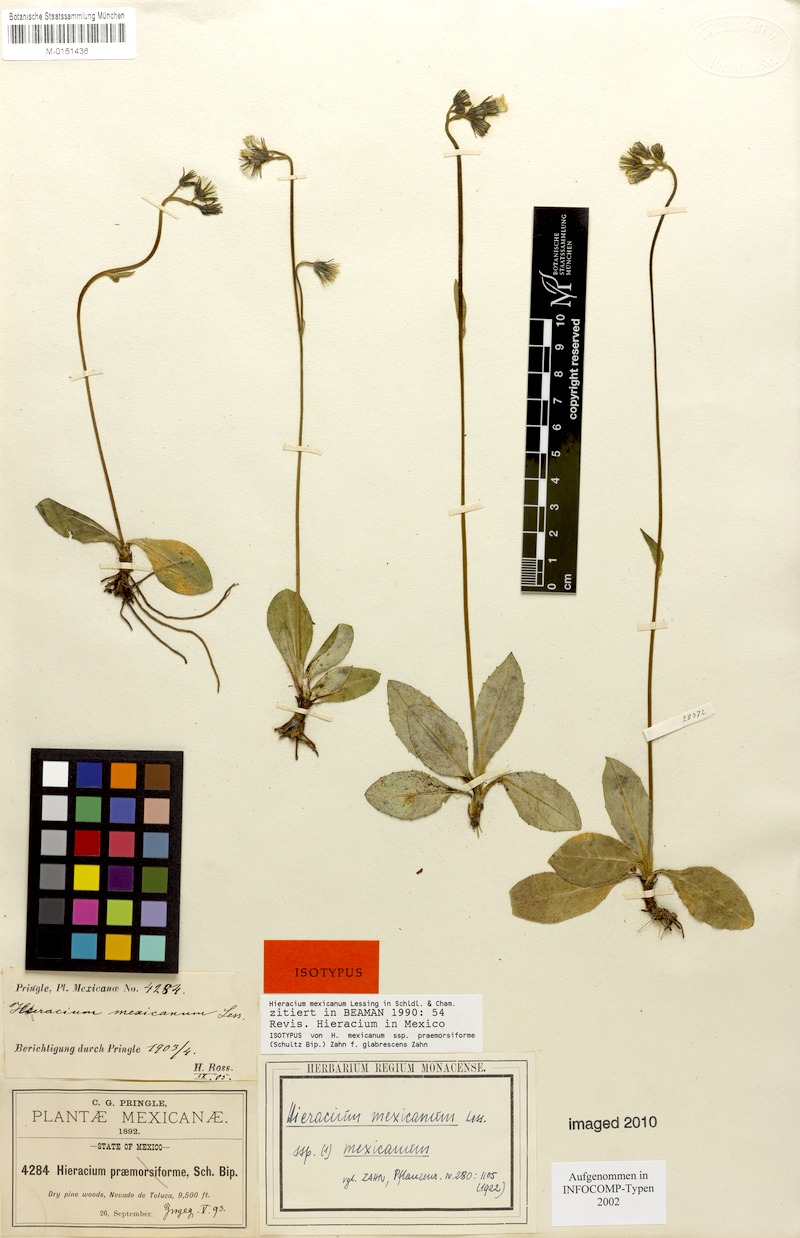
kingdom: Plantae
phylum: Tracheophyta
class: Magnoliopsida
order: Asterales
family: Asteraceae
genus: Hieracium
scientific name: Hieracium mexicanum
